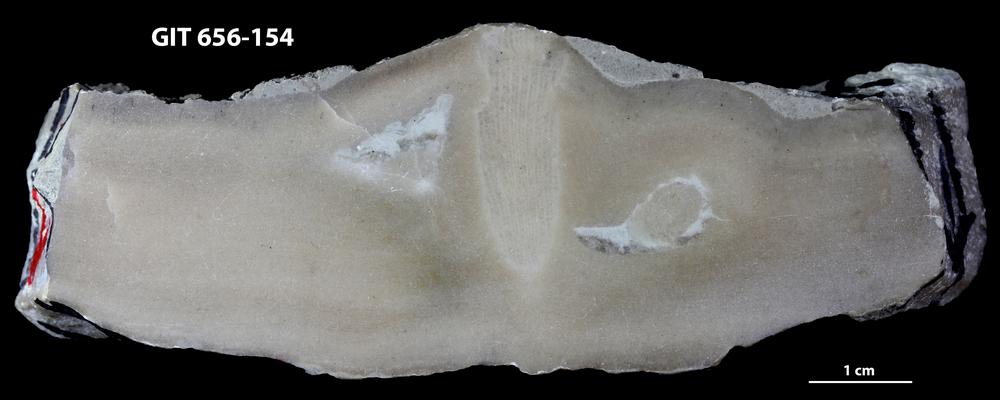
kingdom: Animalia
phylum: Porifera
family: Syringostromellidae
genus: Syringostromella
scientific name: Syringostromella
